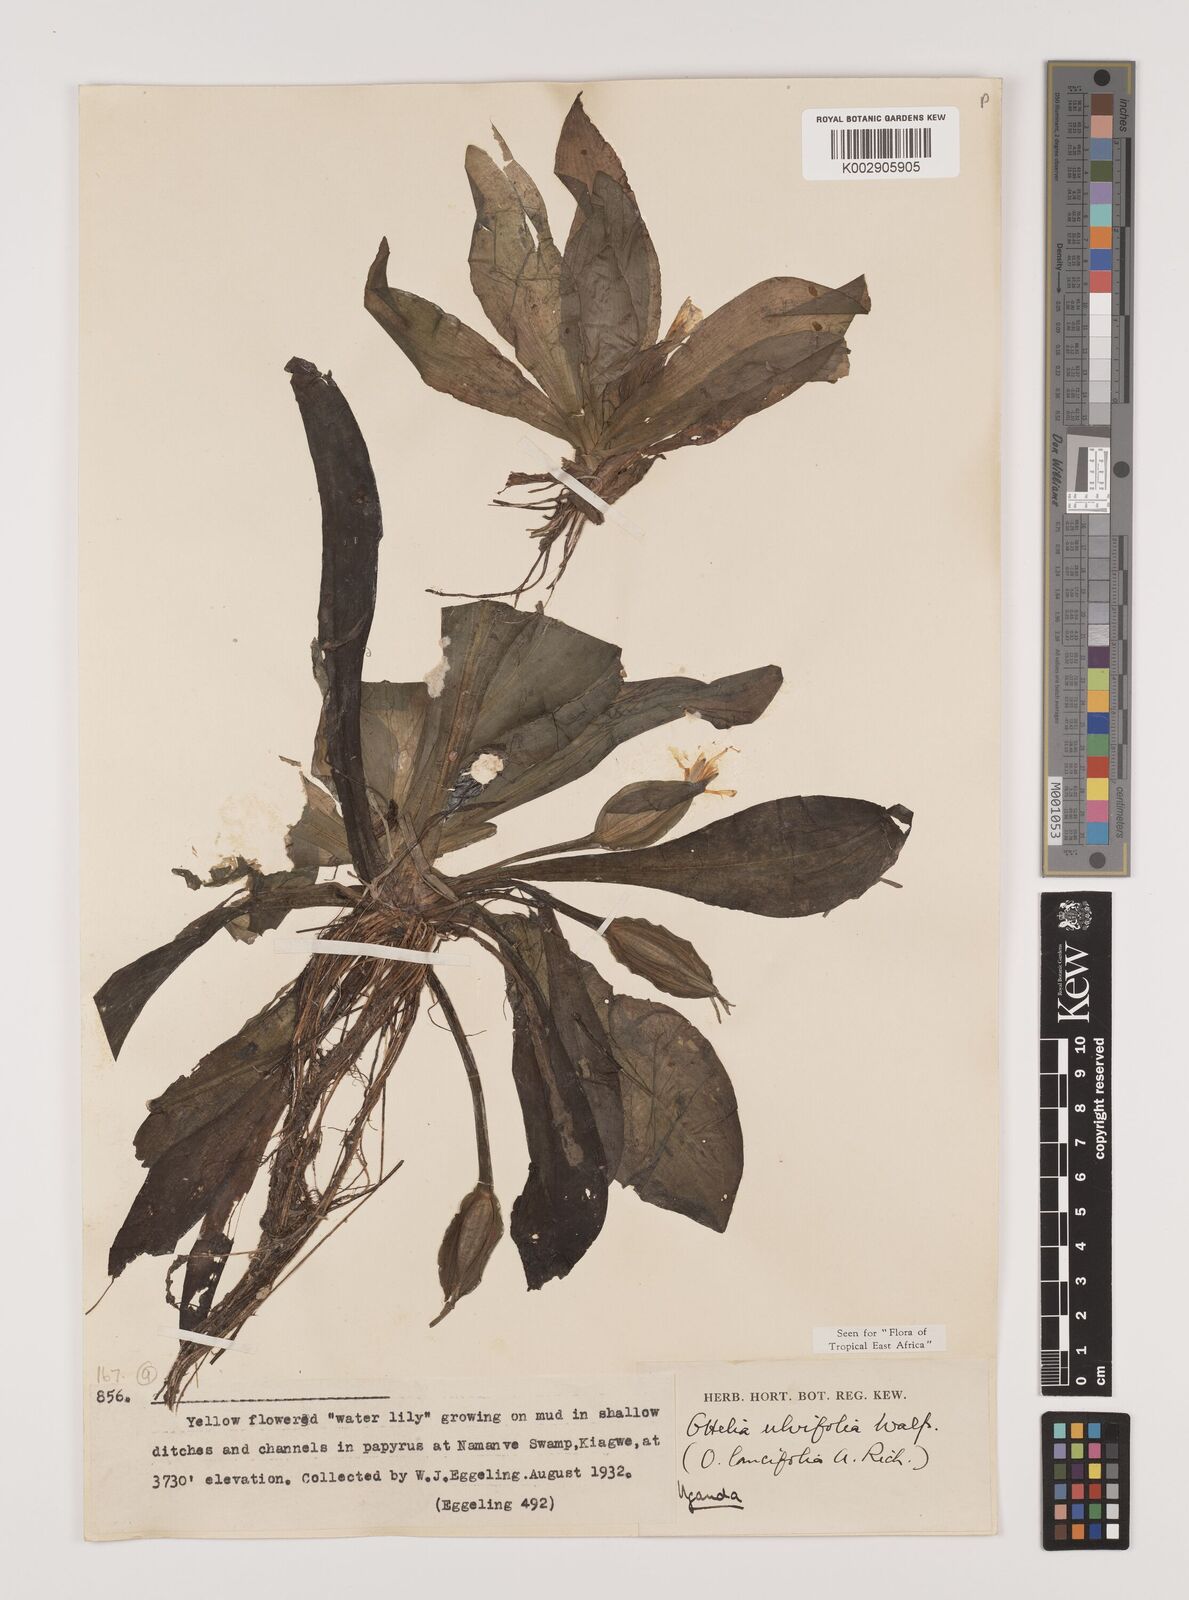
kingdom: Plantae
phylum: Tracheophyta
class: Liliopsida
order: Alismatales
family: Hydrocharitaceae
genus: Ottelia
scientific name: Ottelia ulvifolia
